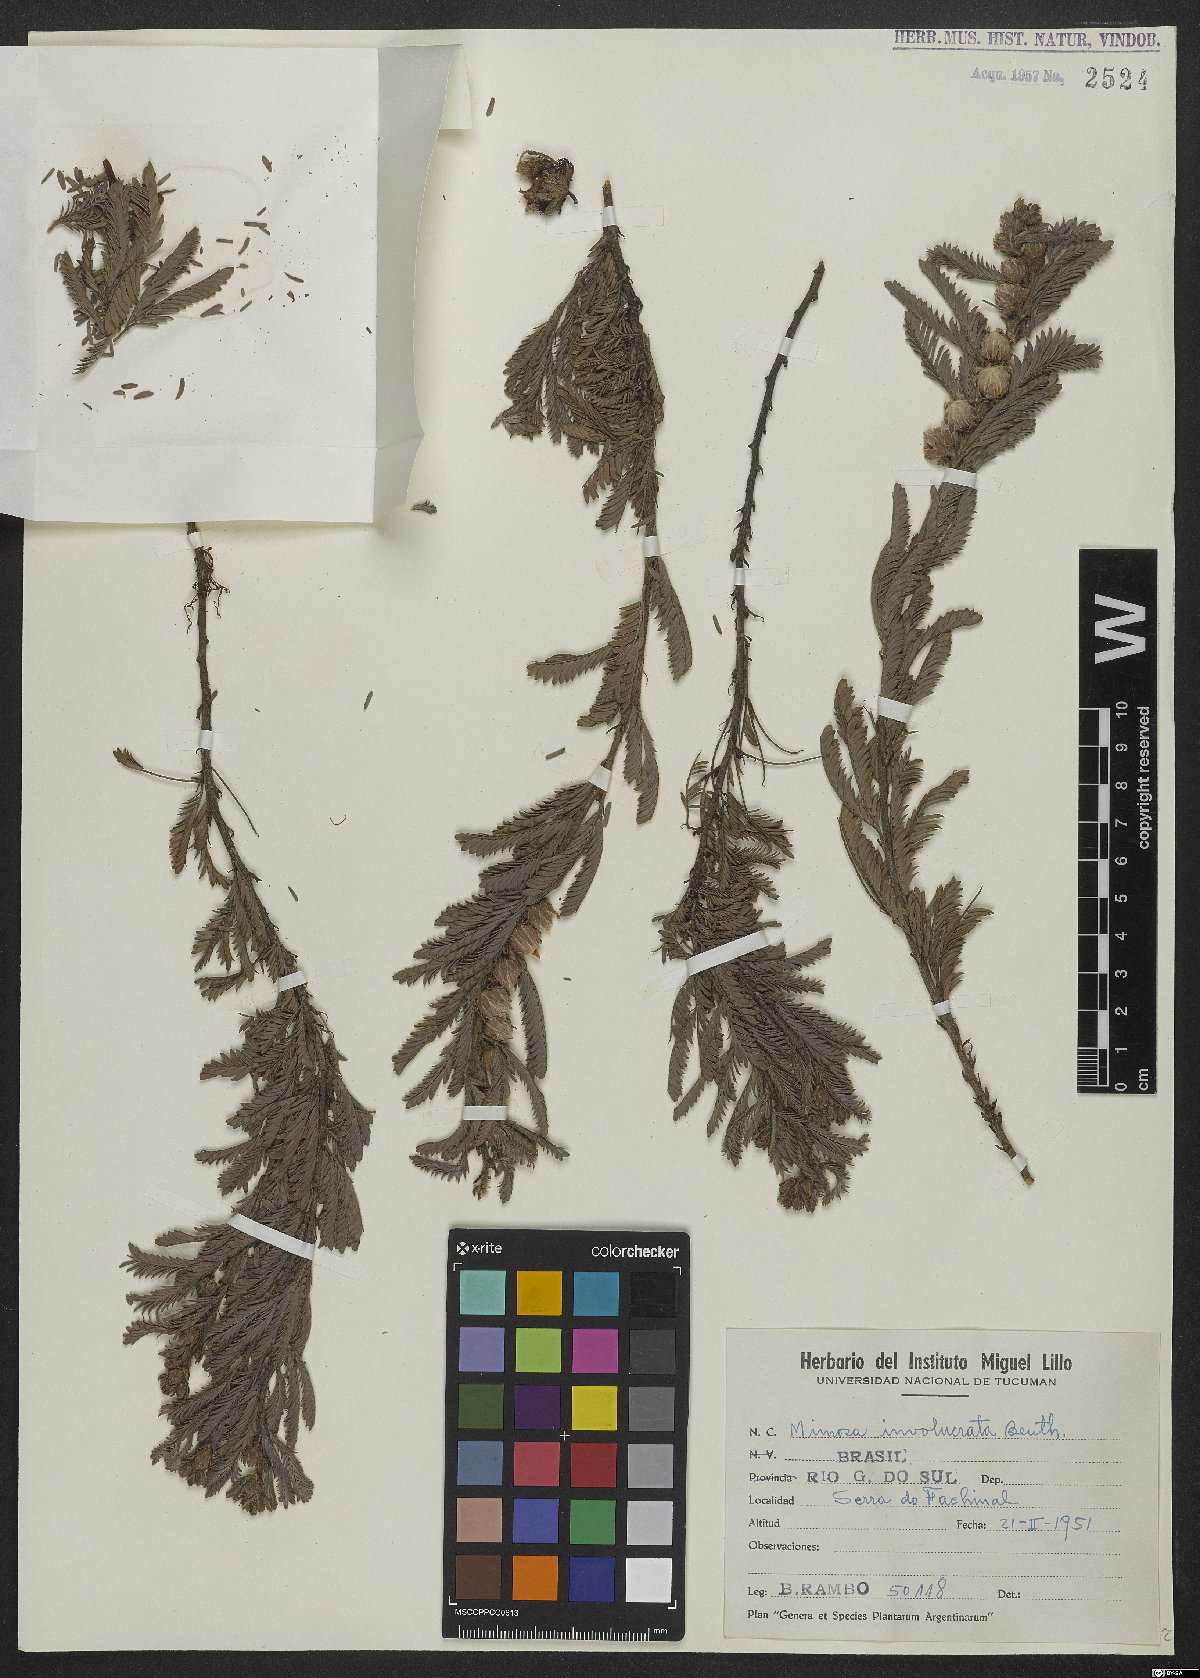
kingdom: Plantae
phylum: Tracheophyta
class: Magnoliopsida
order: Fabales
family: Fabaceae
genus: Mimosa
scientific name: Mimosa involucrata
